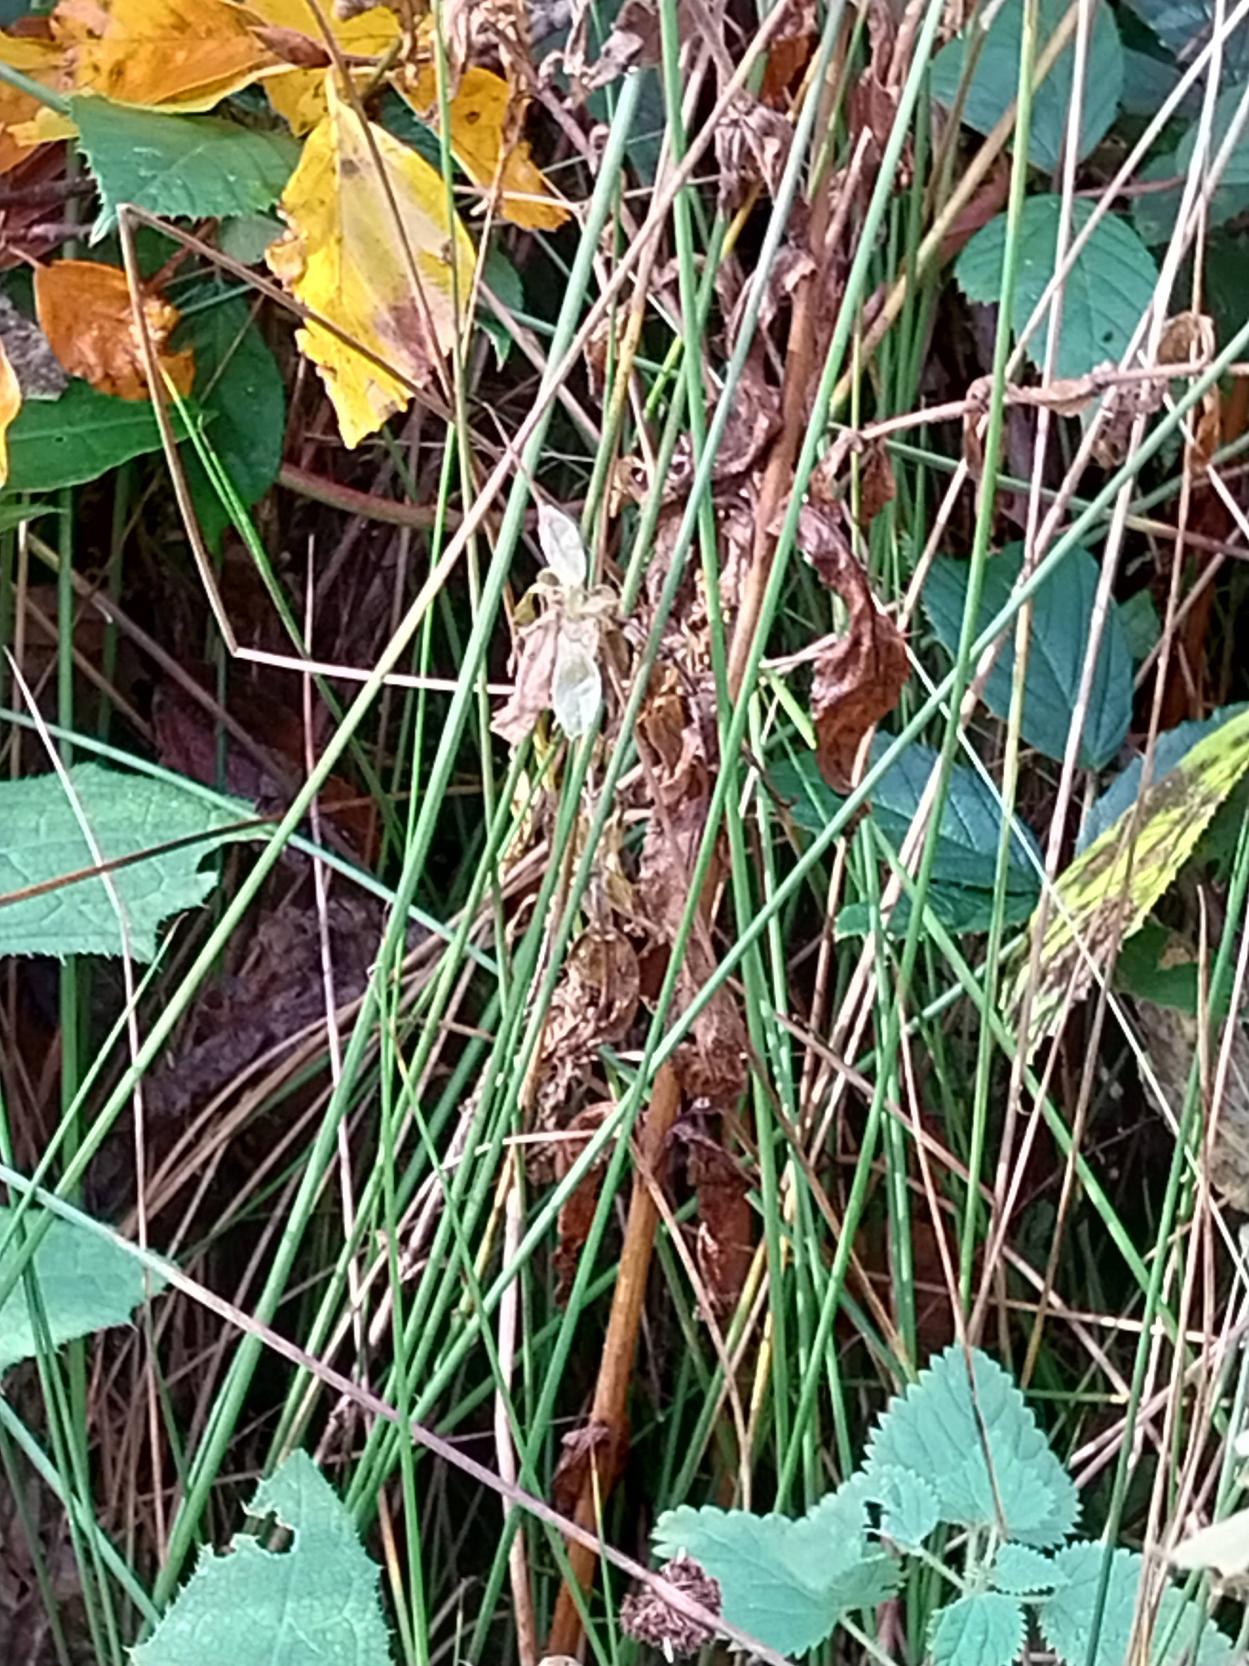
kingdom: Plantae
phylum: Tracheophyta
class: Liliopsida
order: Poales
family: Juncaceae
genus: Juncus
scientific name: Juncus effusus
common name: Lyse-siv
